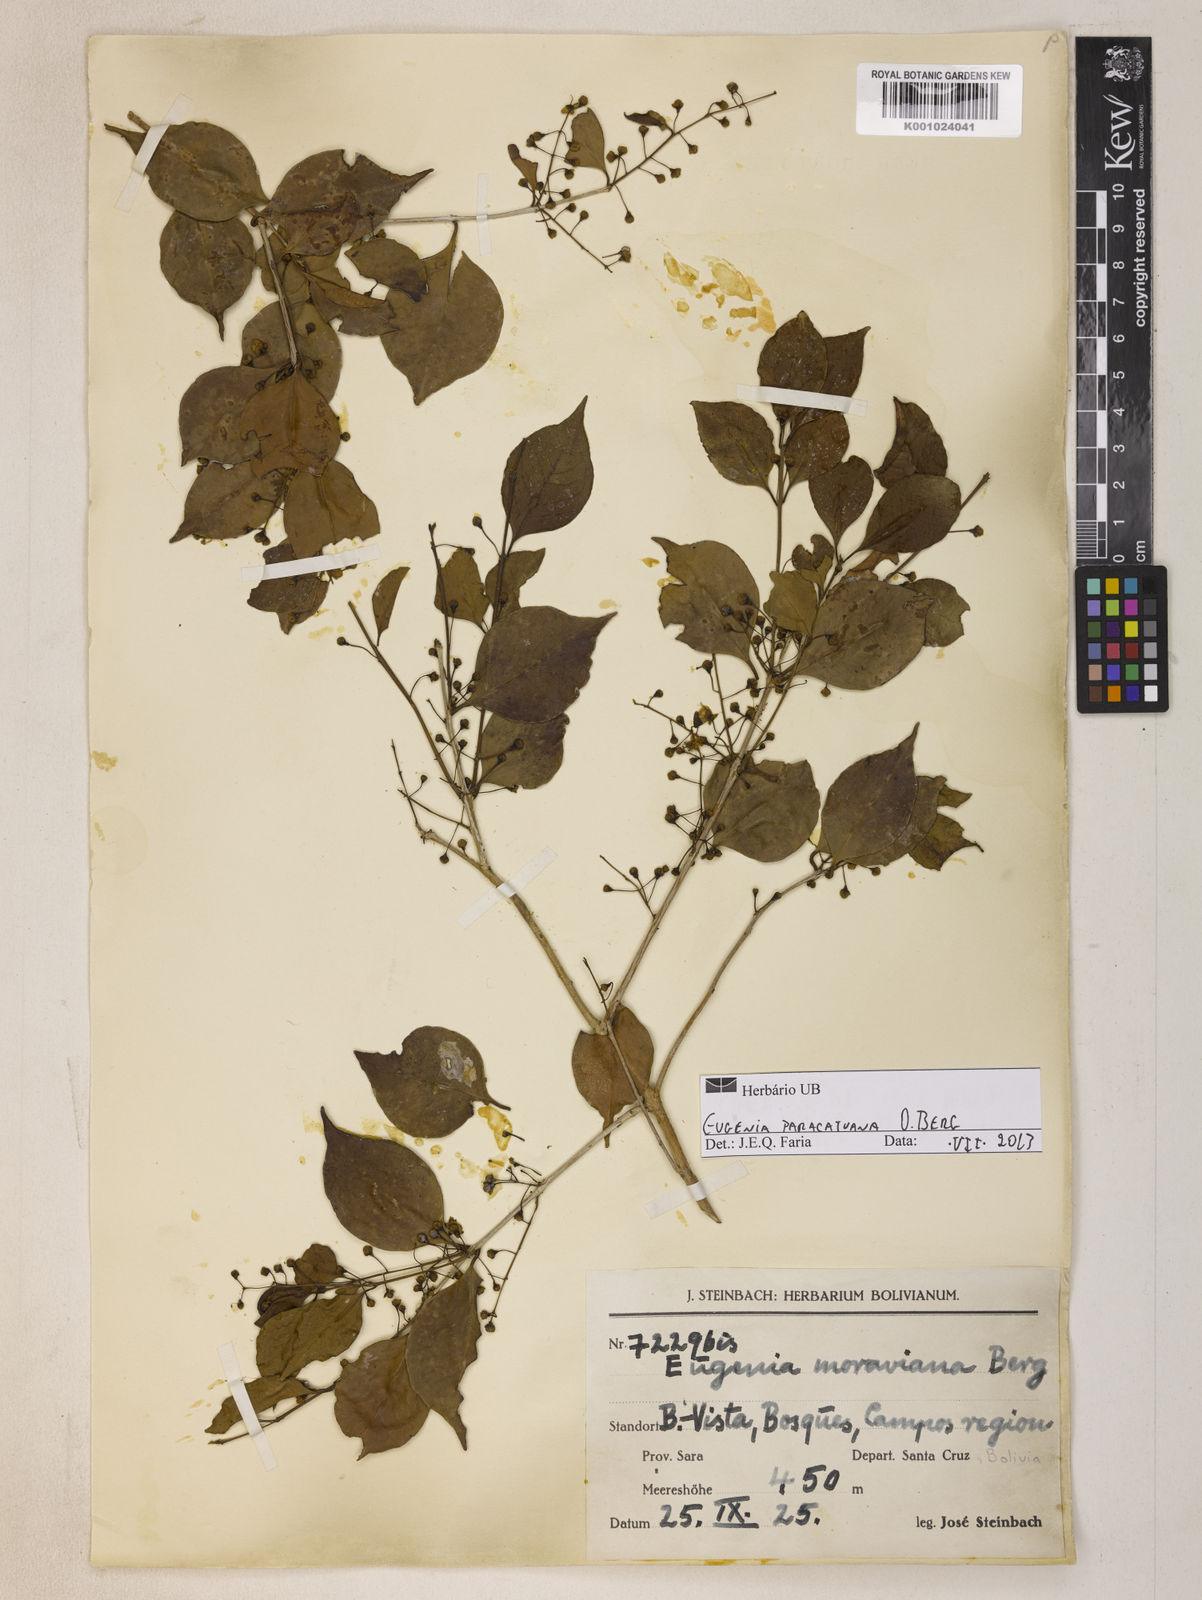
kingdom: Plantae
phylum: Tracheophyta
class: Magnoliopsida
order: Myrtales
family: Myrtaceae
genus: Eugenia
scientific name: Eugenia moraviana
